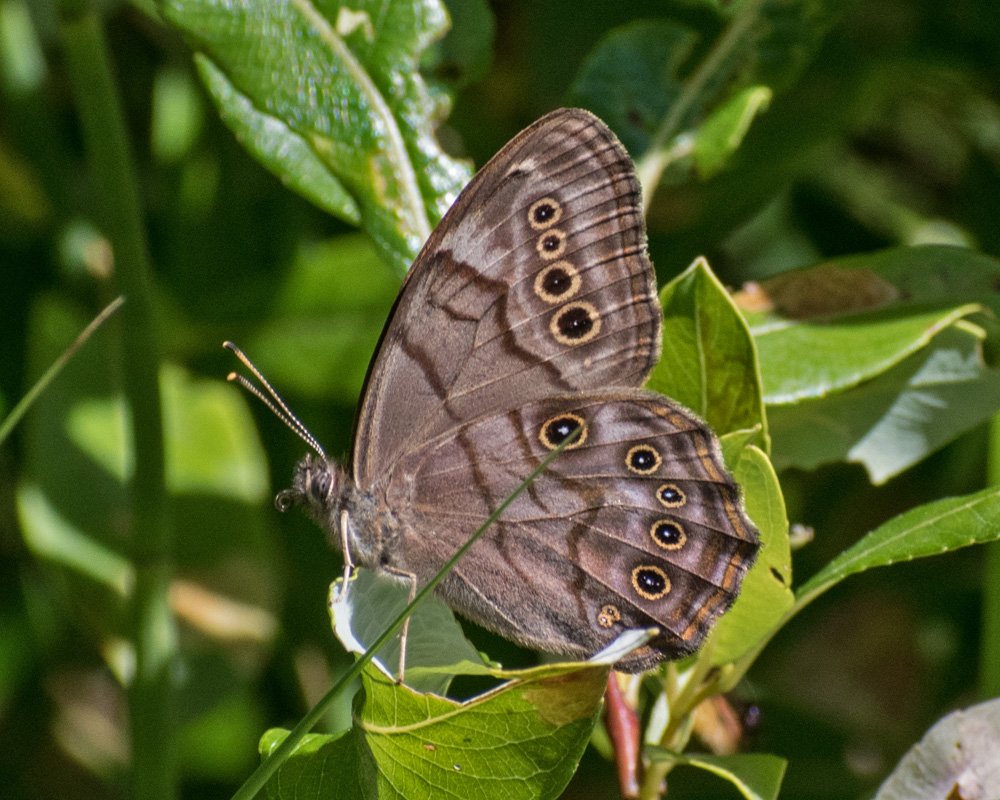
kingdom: Animalia
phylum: Arthropoda
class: Insecta
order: Lepidoptera
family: Nymphalidae
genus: Lethe
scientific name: Lethe anthedon
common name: Northern Pearly-Eye
